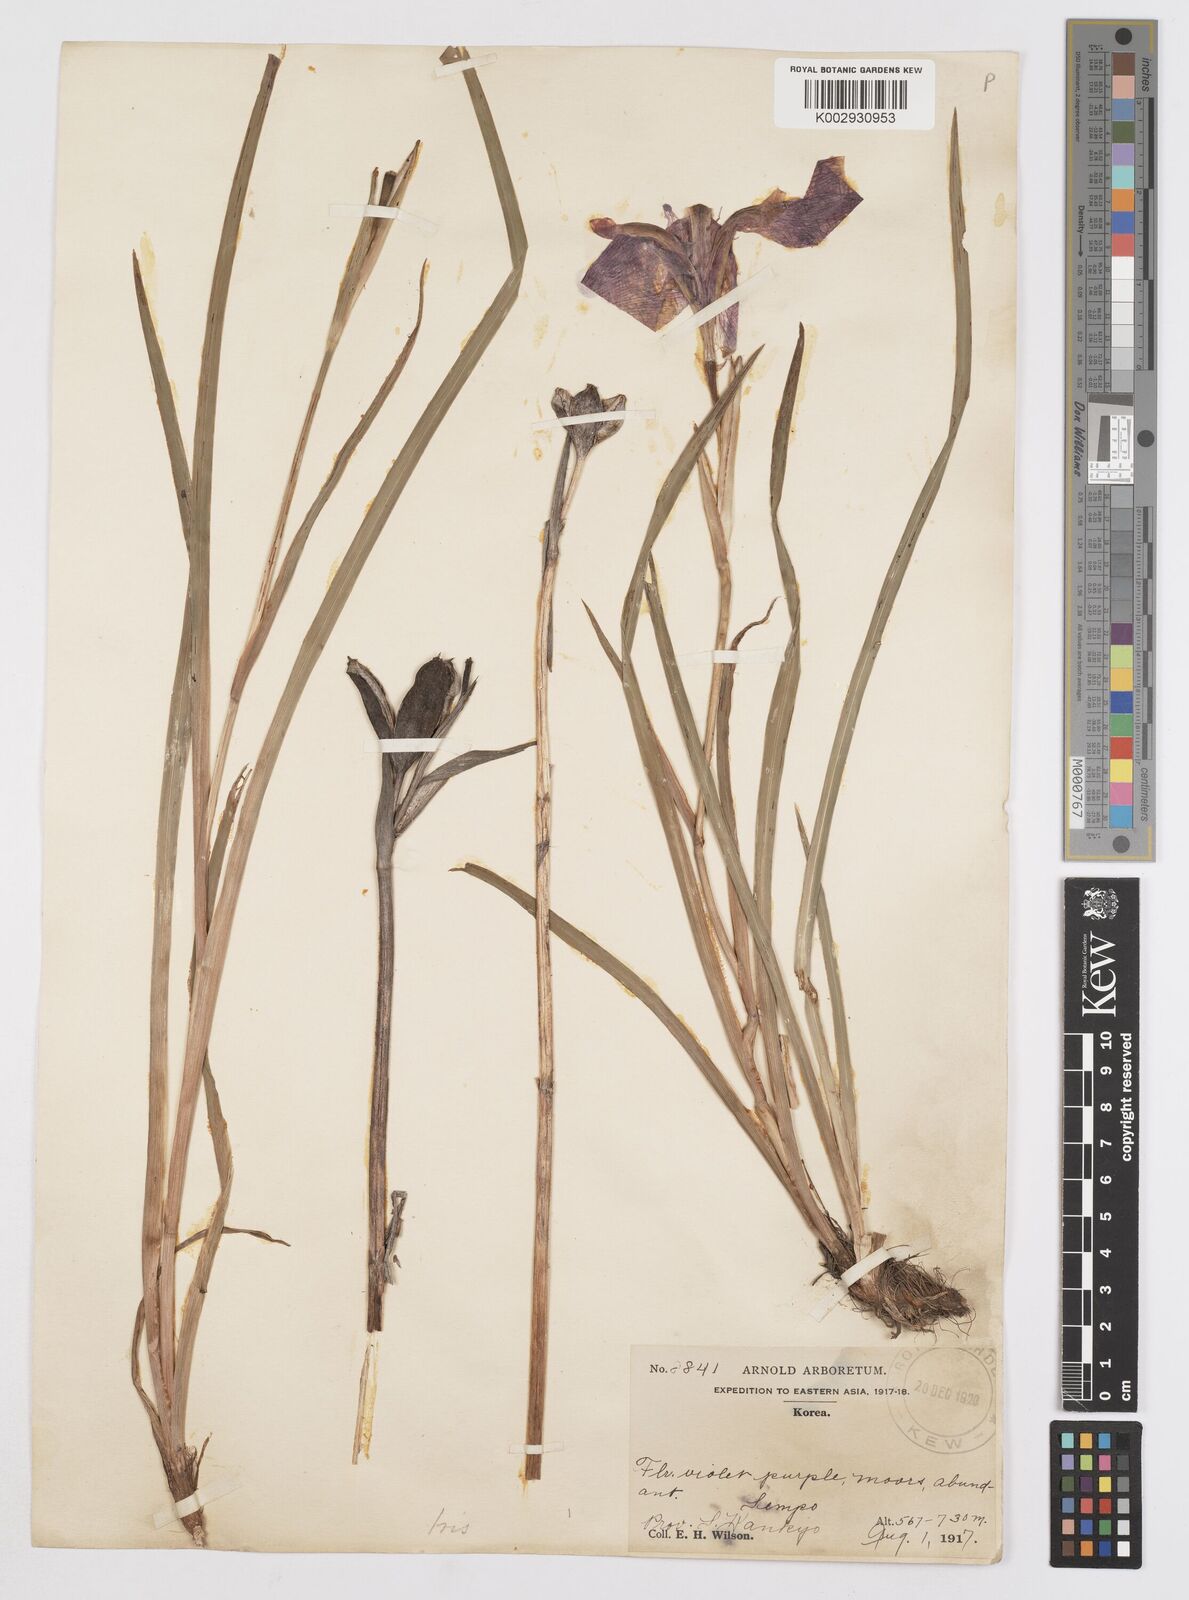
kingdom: Plantae
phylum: Tracheophyta
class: Liliopsida
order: Asparagales
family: Iridaceae
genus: Iris
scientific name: Iris
